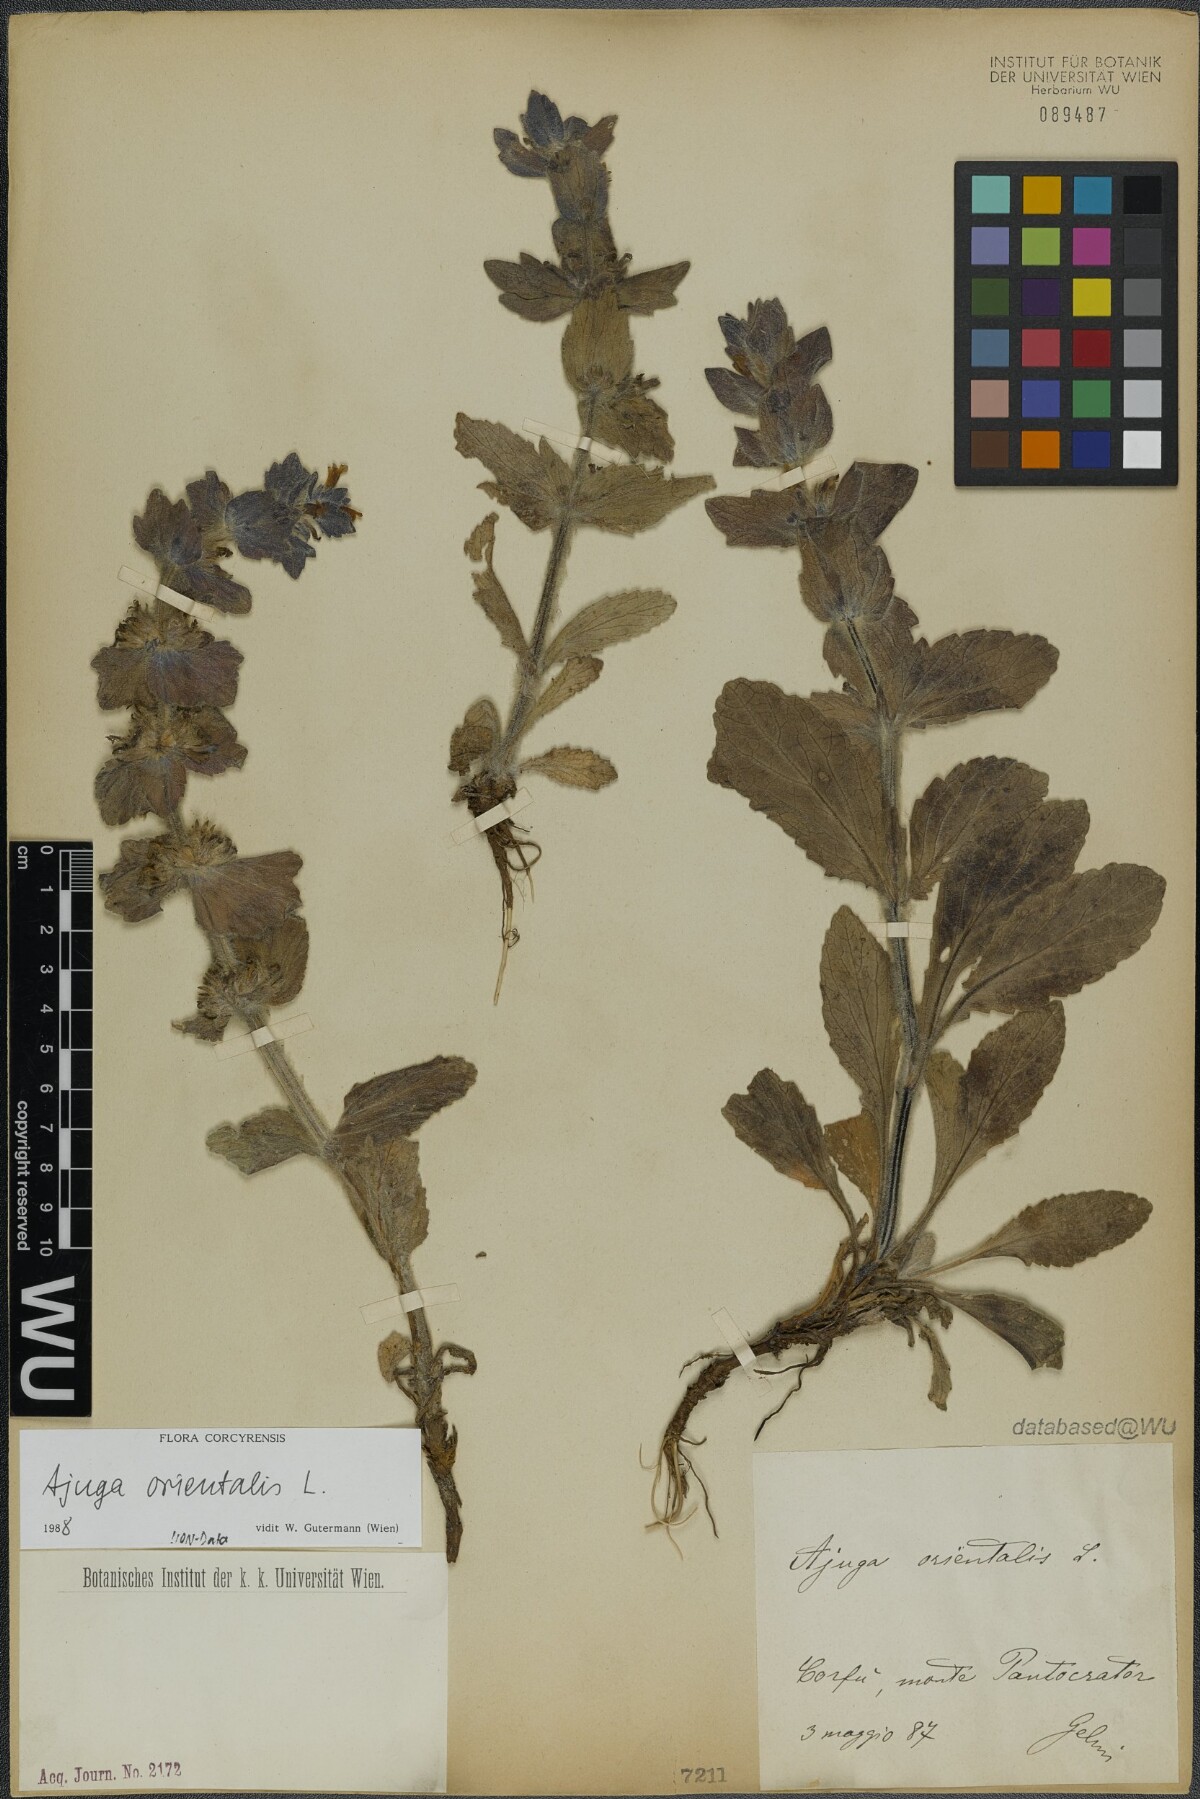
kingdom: Plantae
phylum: Tracheophyta
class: Magnoliopsida
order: Lamiales
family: Lamiaceae
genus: Ajuga
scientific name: Ajuga orientalis
